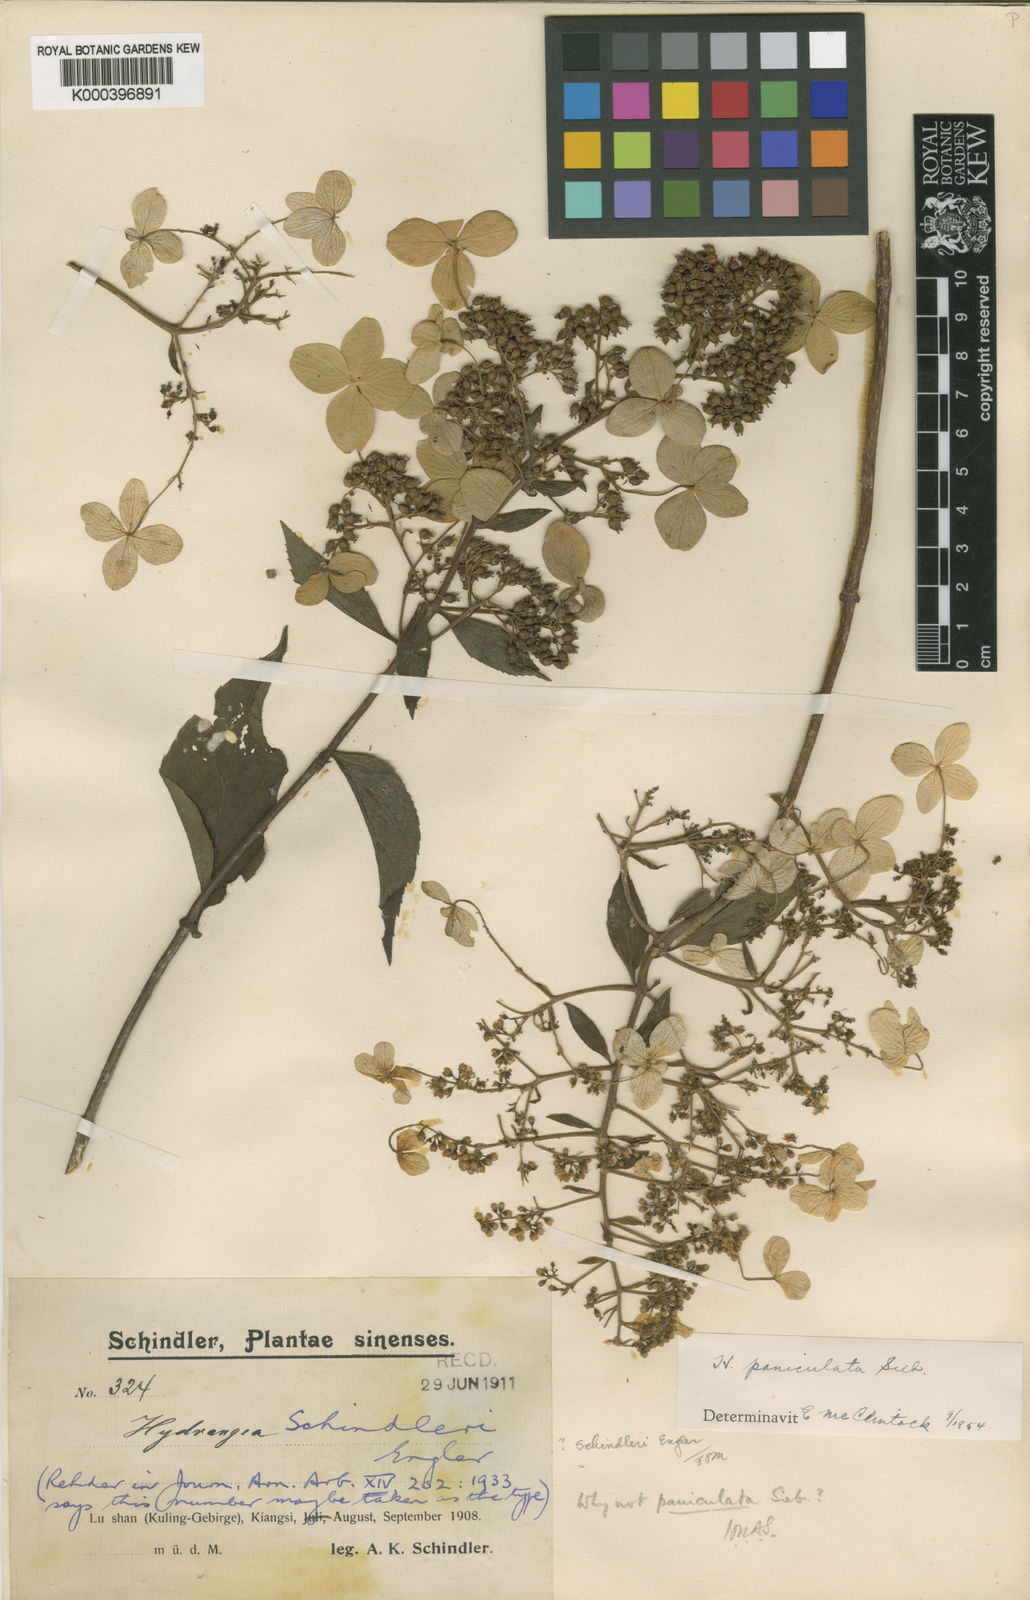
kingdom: Plantae
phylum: Tracheophyta
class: Magnoliopsida
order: Cornales
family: Hydrangeaceae
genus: Hydrangea
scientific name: Hydrangea paniculata
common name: Panicled hydrangea
